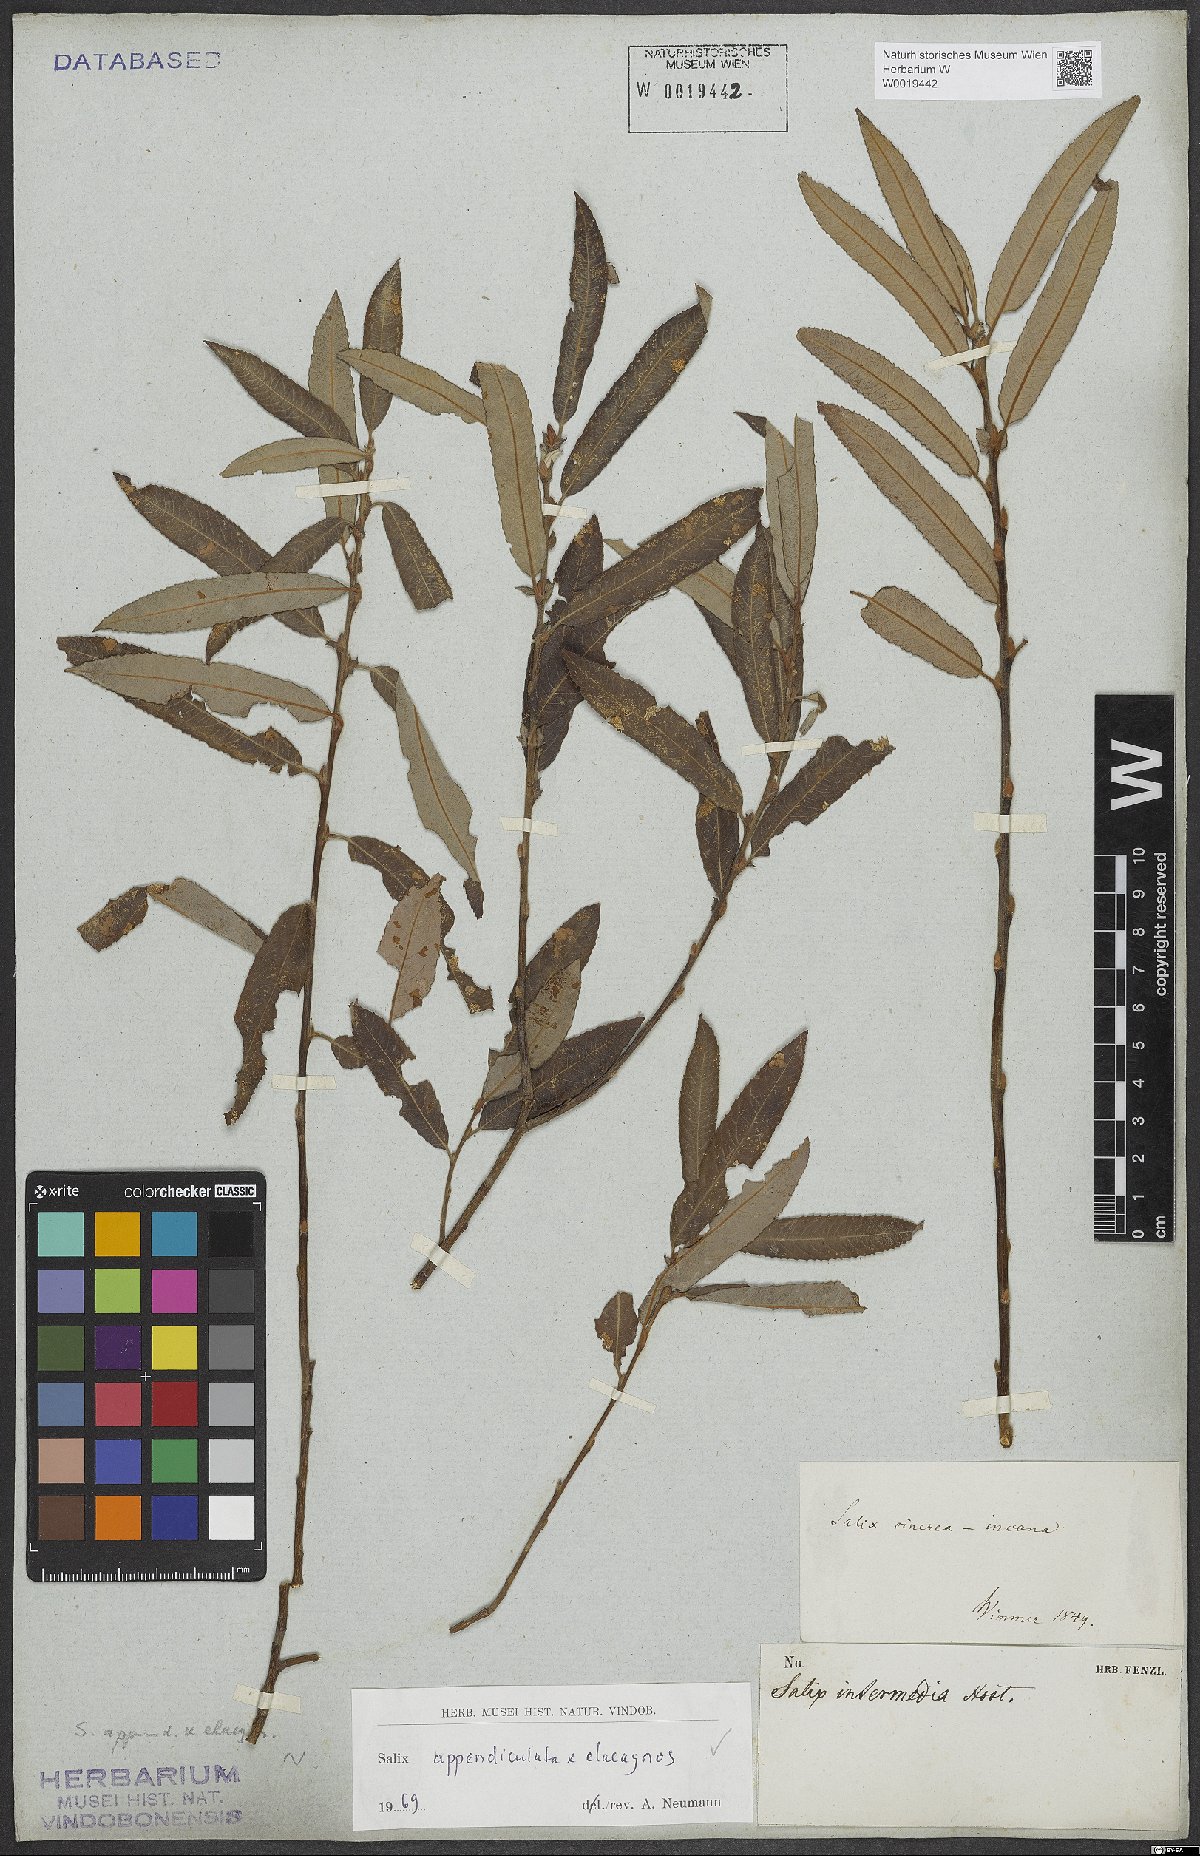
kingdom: Plantae
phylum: Tracheophyta
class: Magnoliopsida
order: Malpighiales
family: Salicaceae
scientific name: Salicaceae
